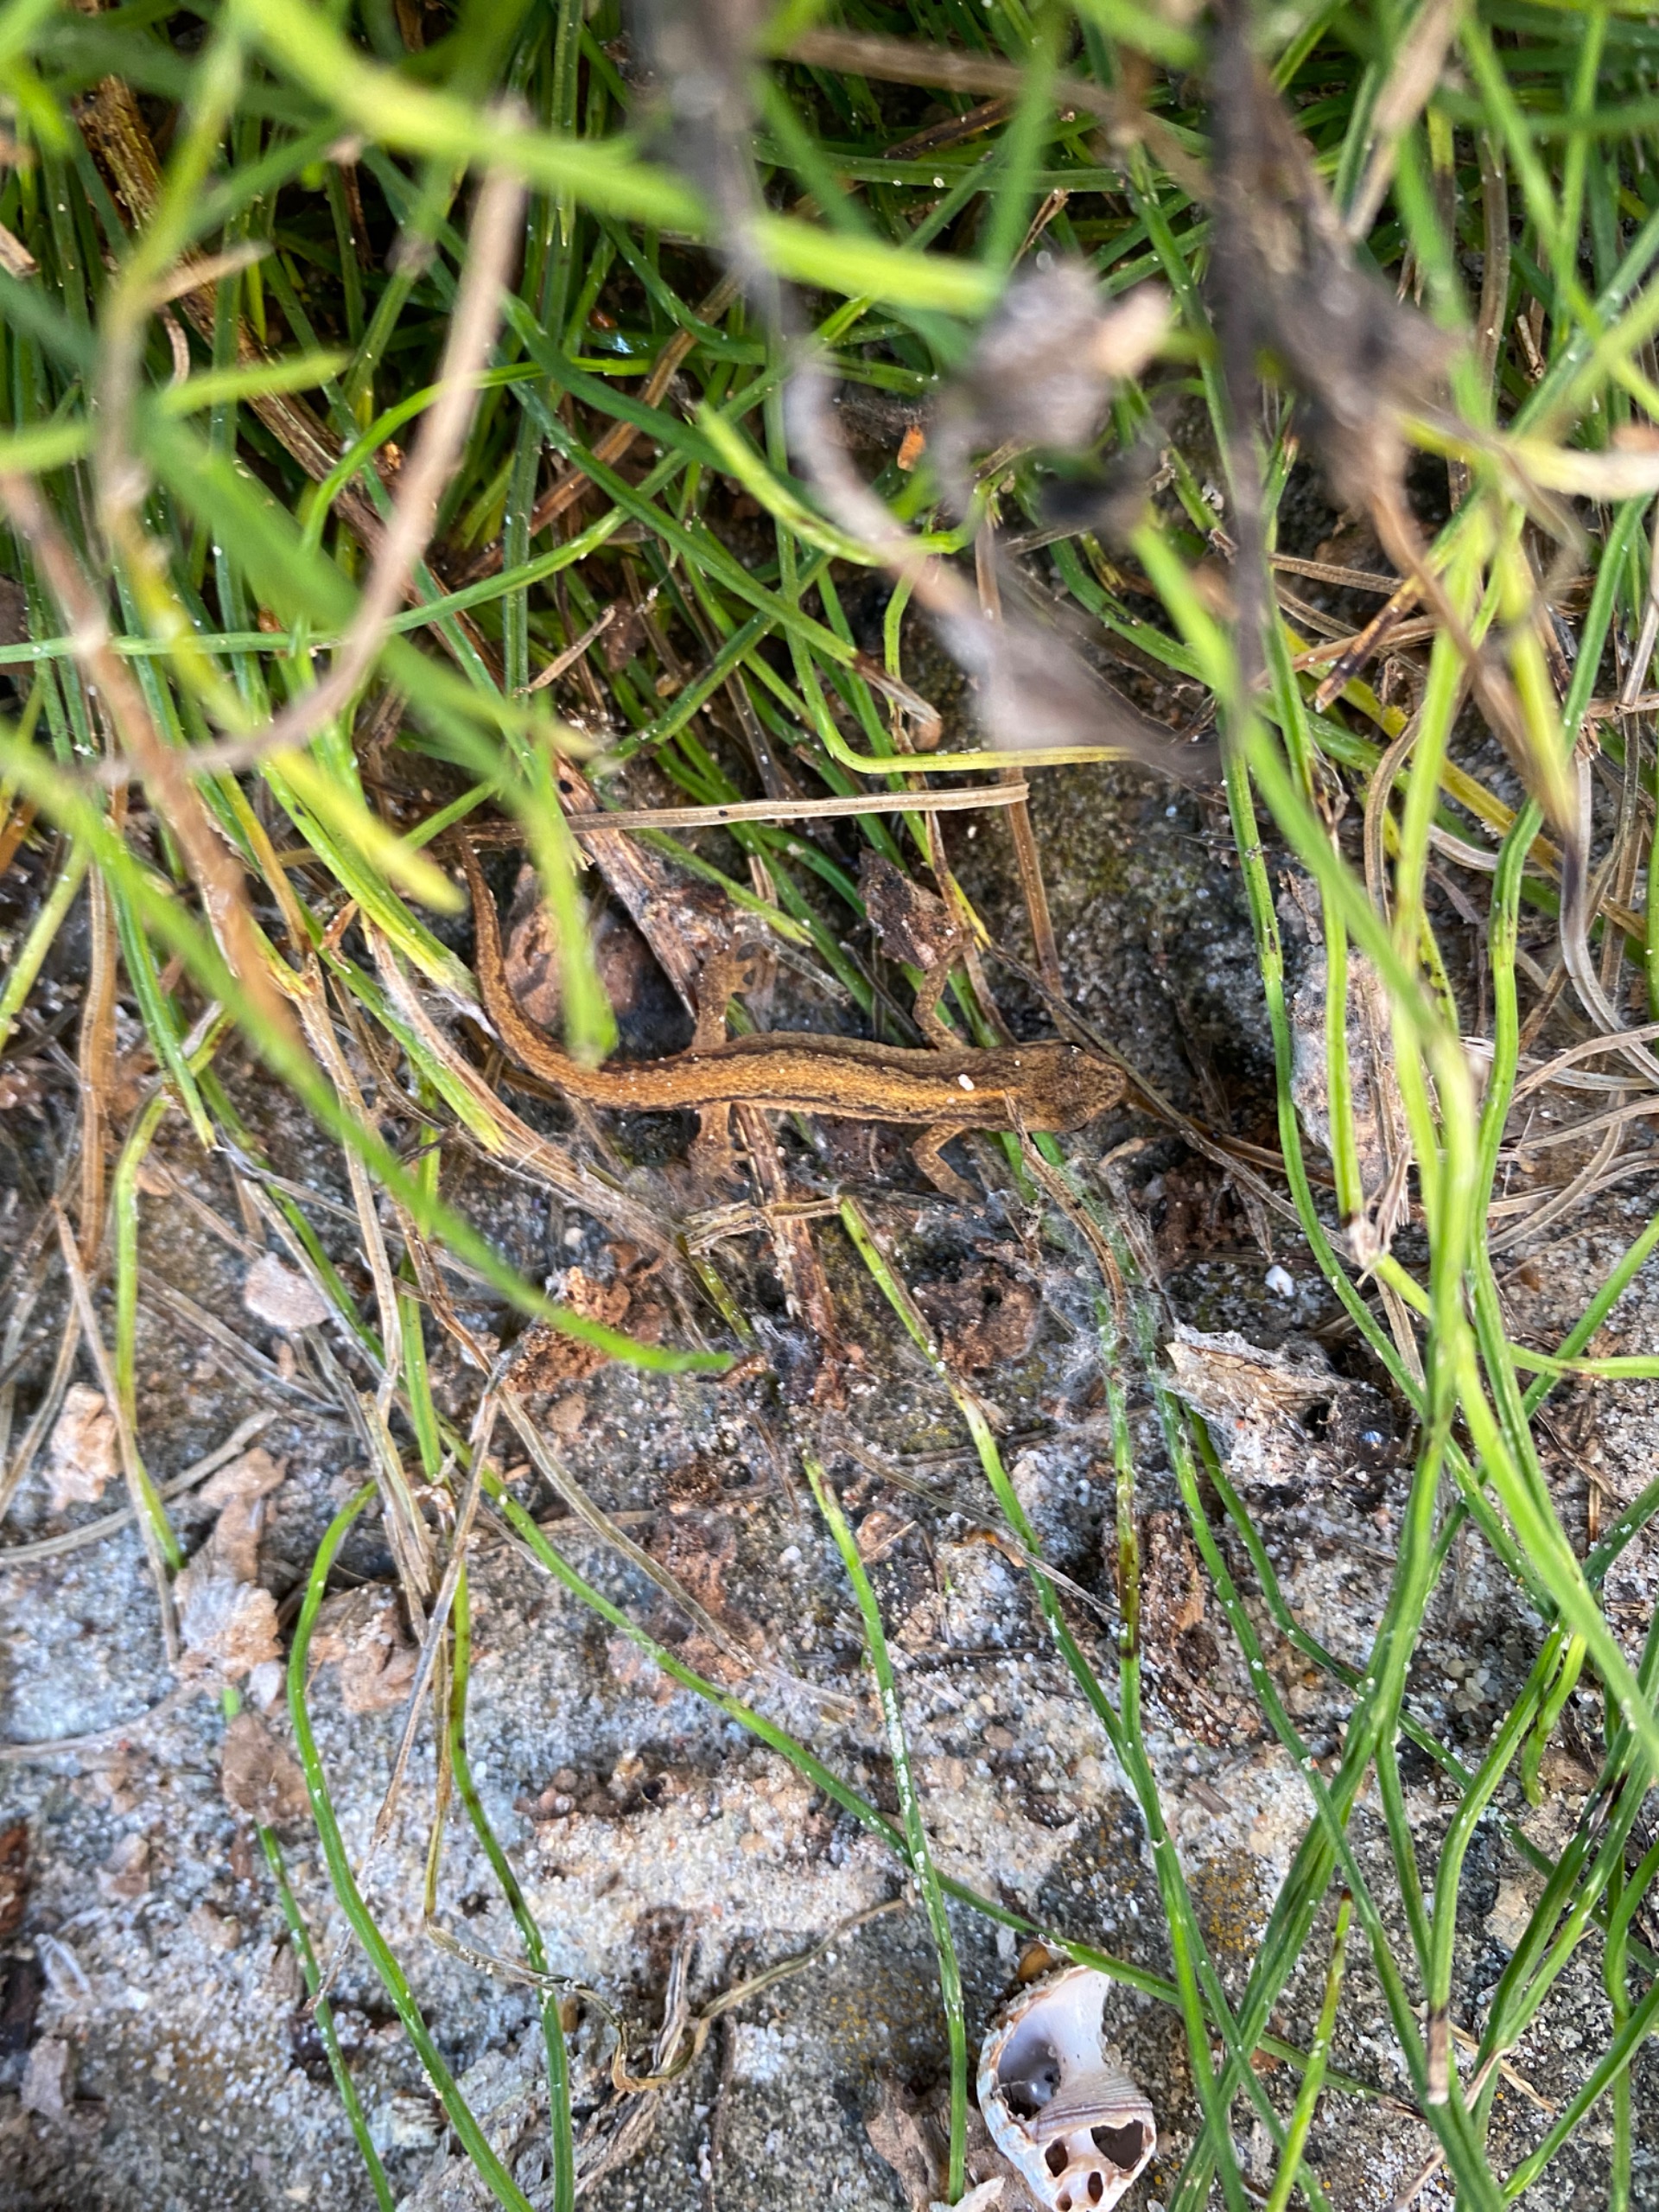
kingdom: Animalia
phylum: Chordata
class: Amphibia
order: Caudata
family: Salamandridae
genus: Lissotriton
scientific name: Lissotriton vulgaris
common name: Lille vandsalamander
